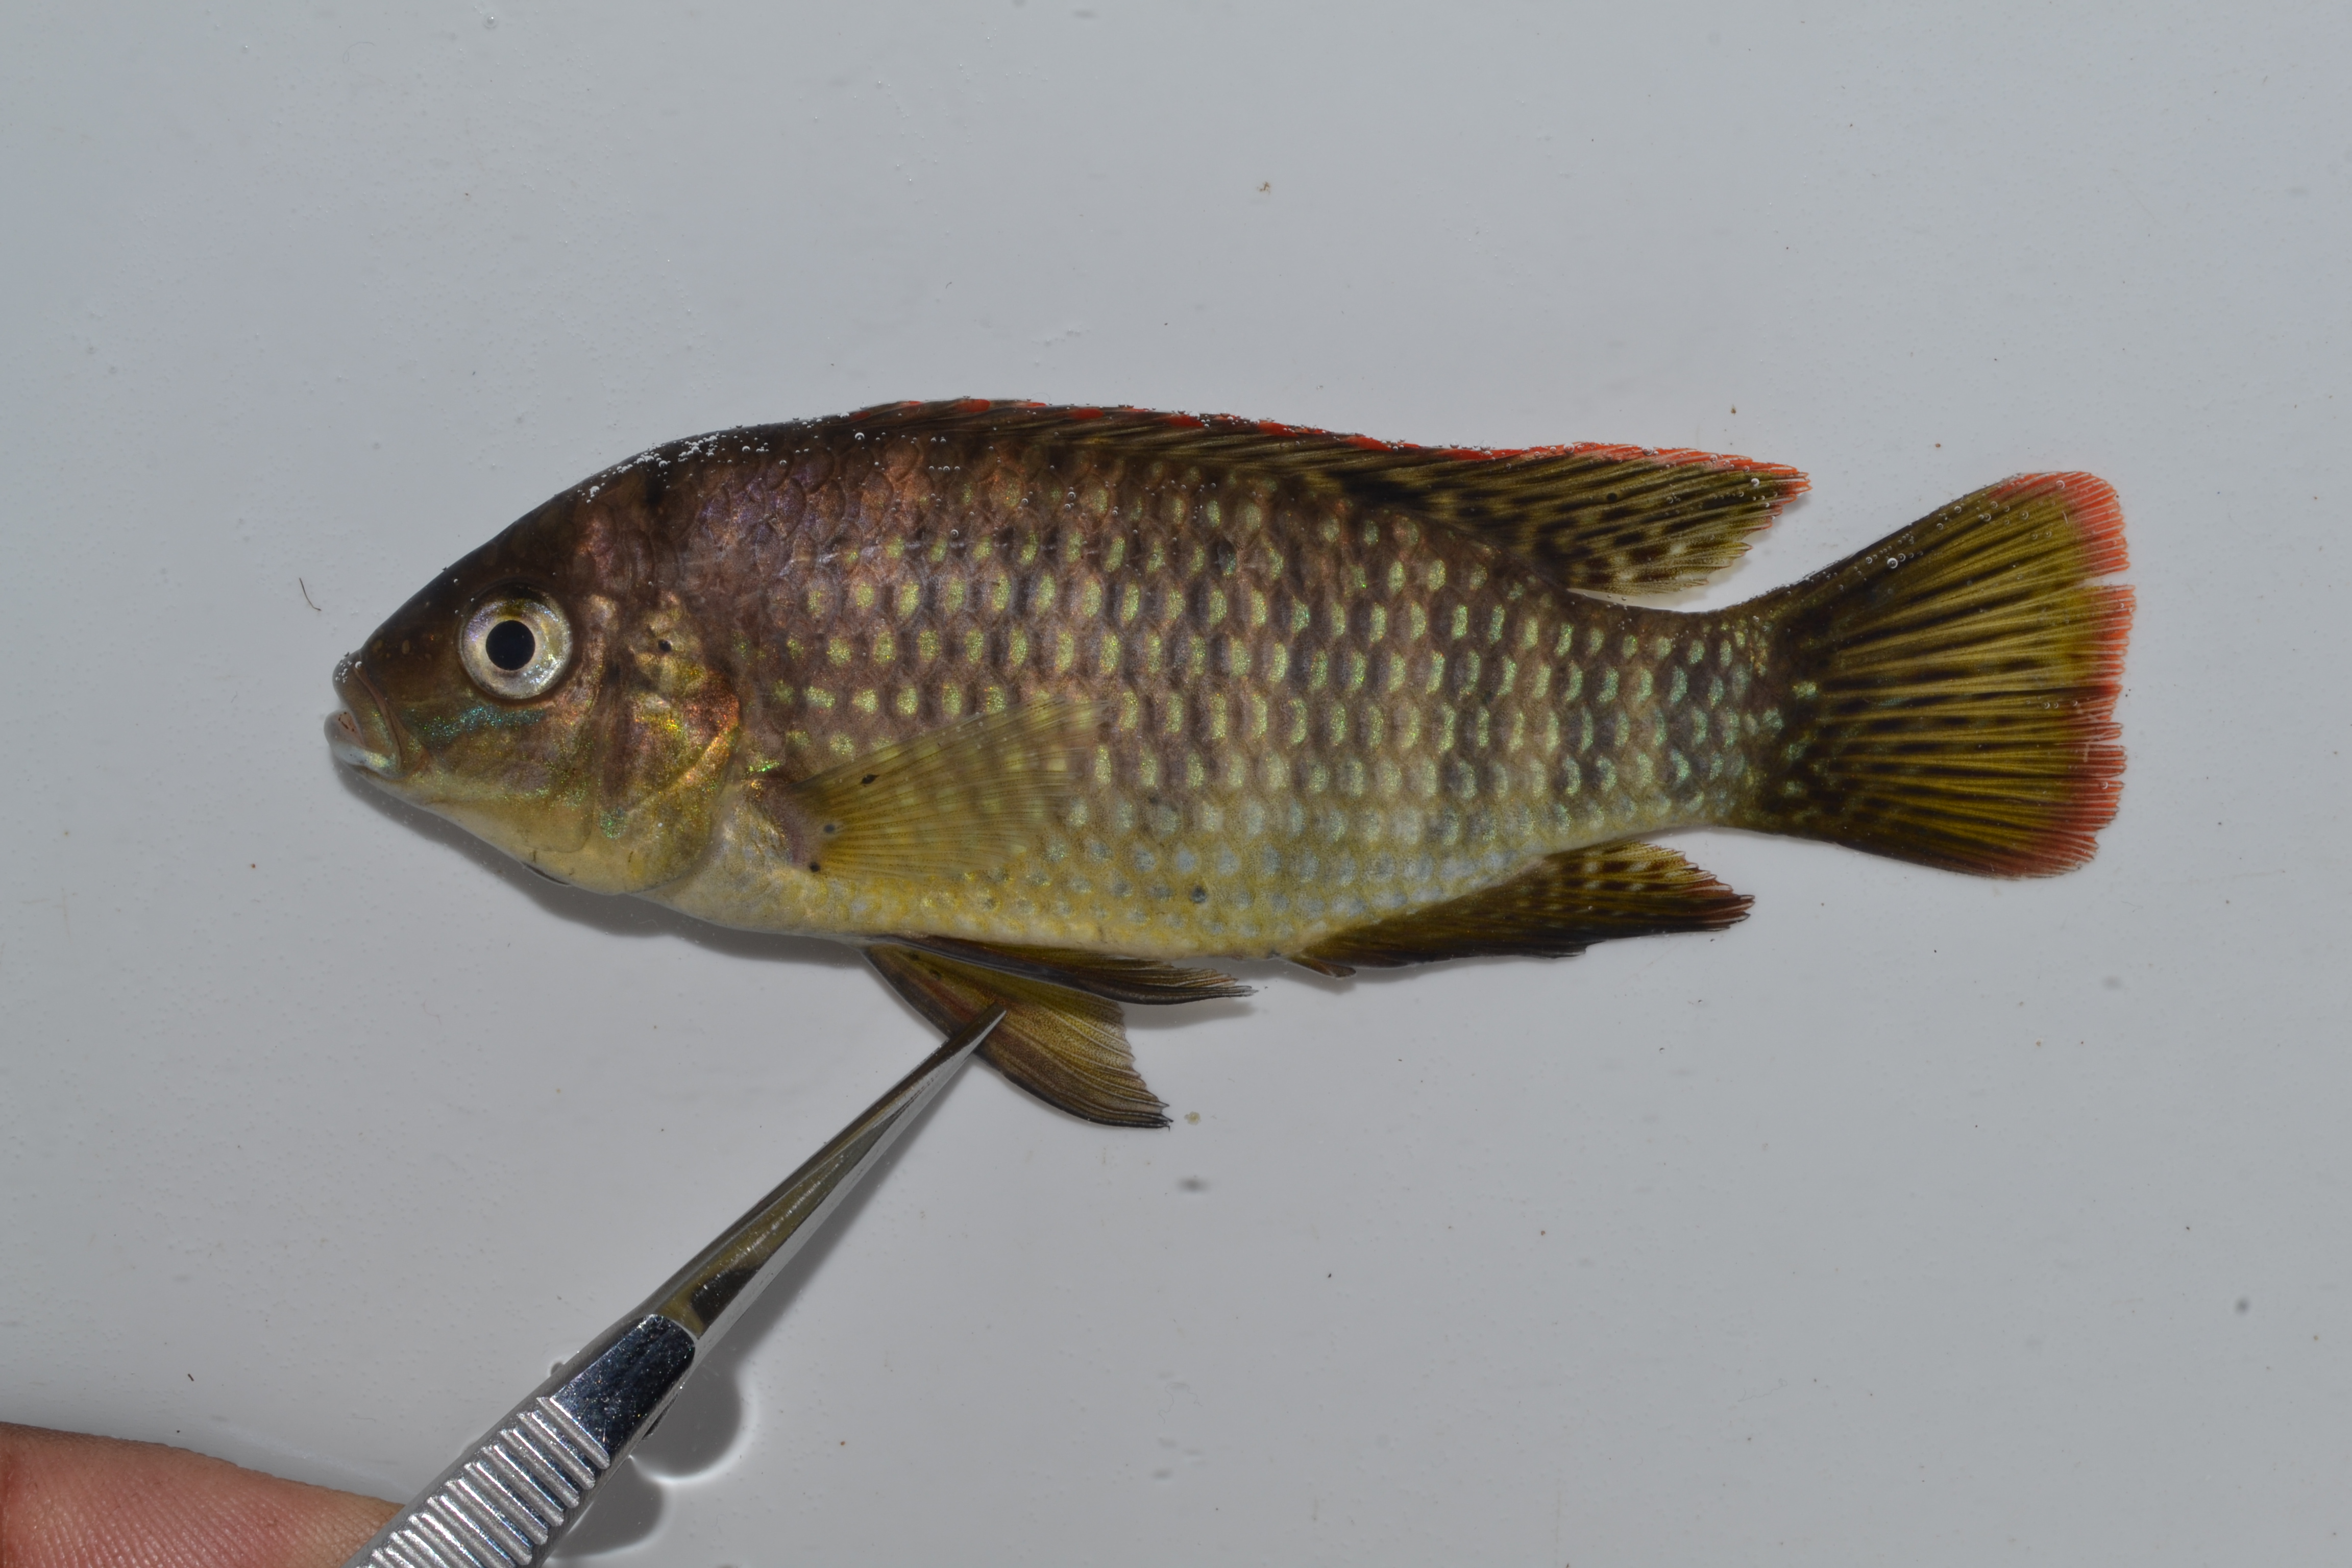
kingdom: Animalia
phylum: Chordata
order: Perciformes
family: Cichlidae
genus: Pseudocrenilabrus
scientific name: Pseudocrenilabrus philander
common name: Southern mouthbrooder
